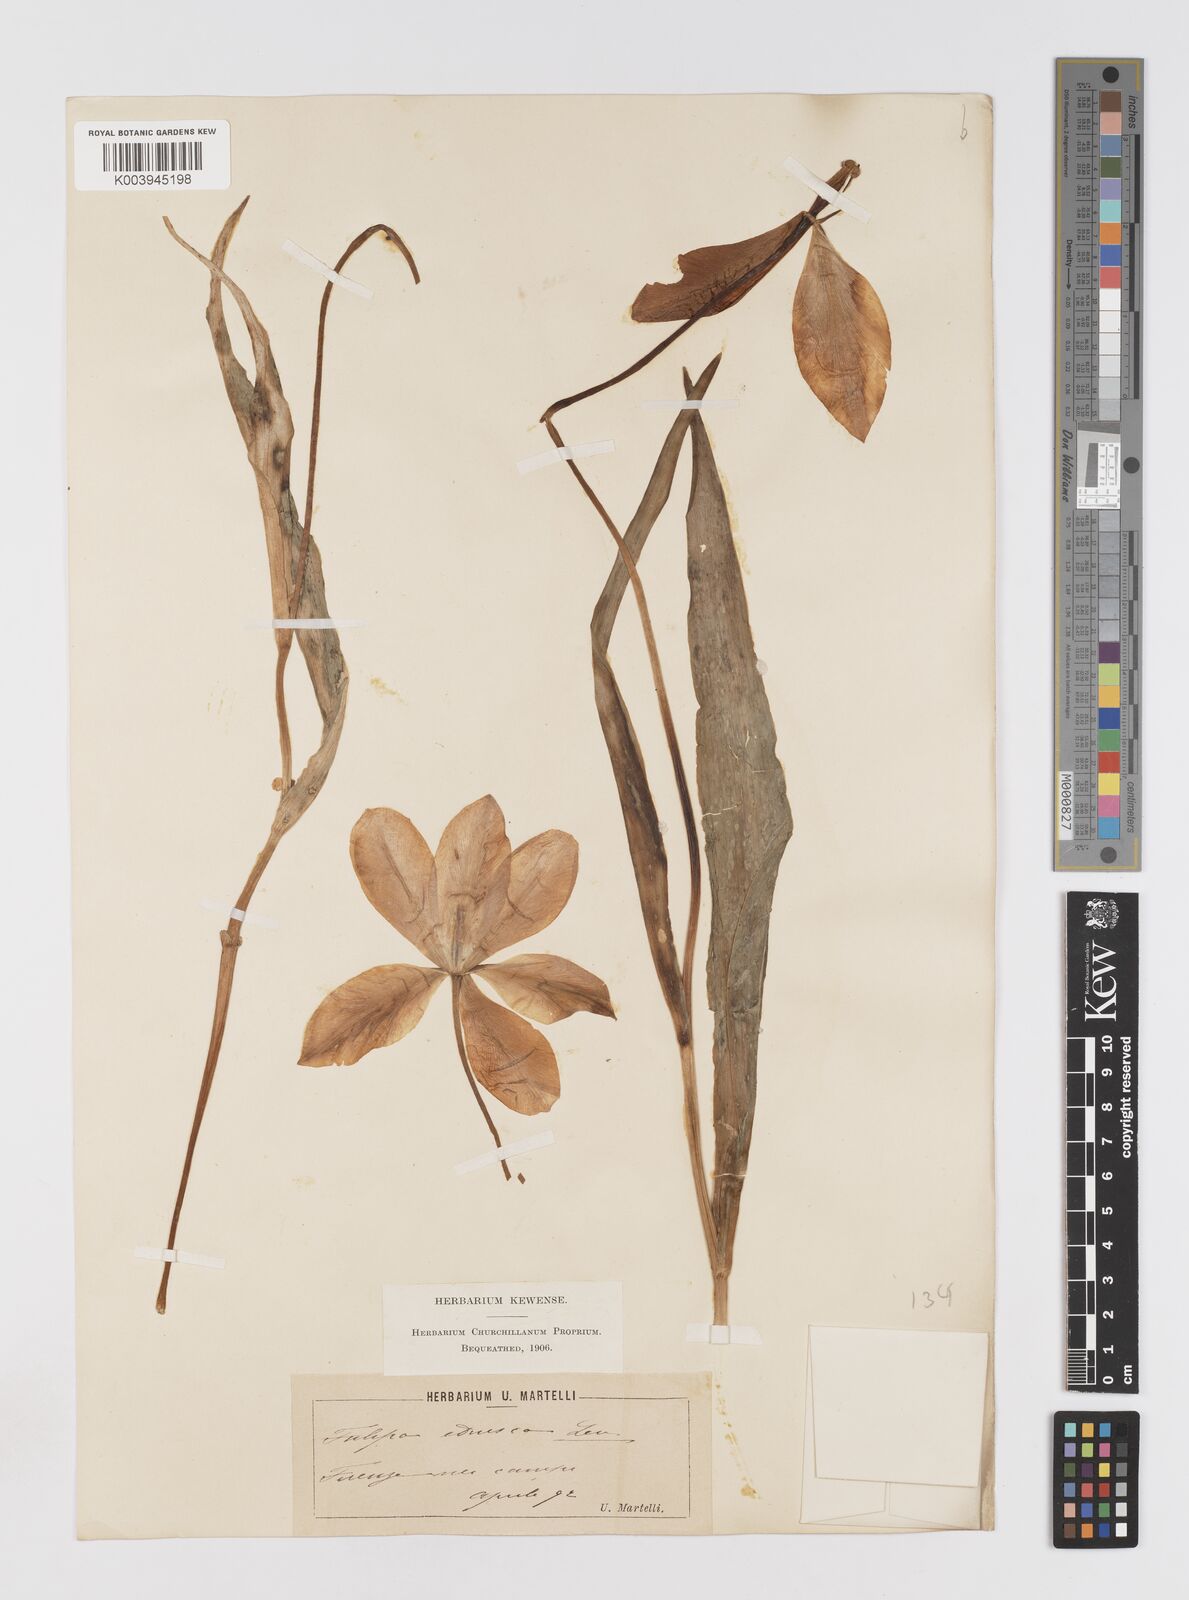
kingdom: Plantae
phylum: Tracheophyta
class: Liliopsida
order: Liliales
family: Liliaceae
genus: Tulipa
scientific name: Tulipa gesneriana
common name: Garden tulip
